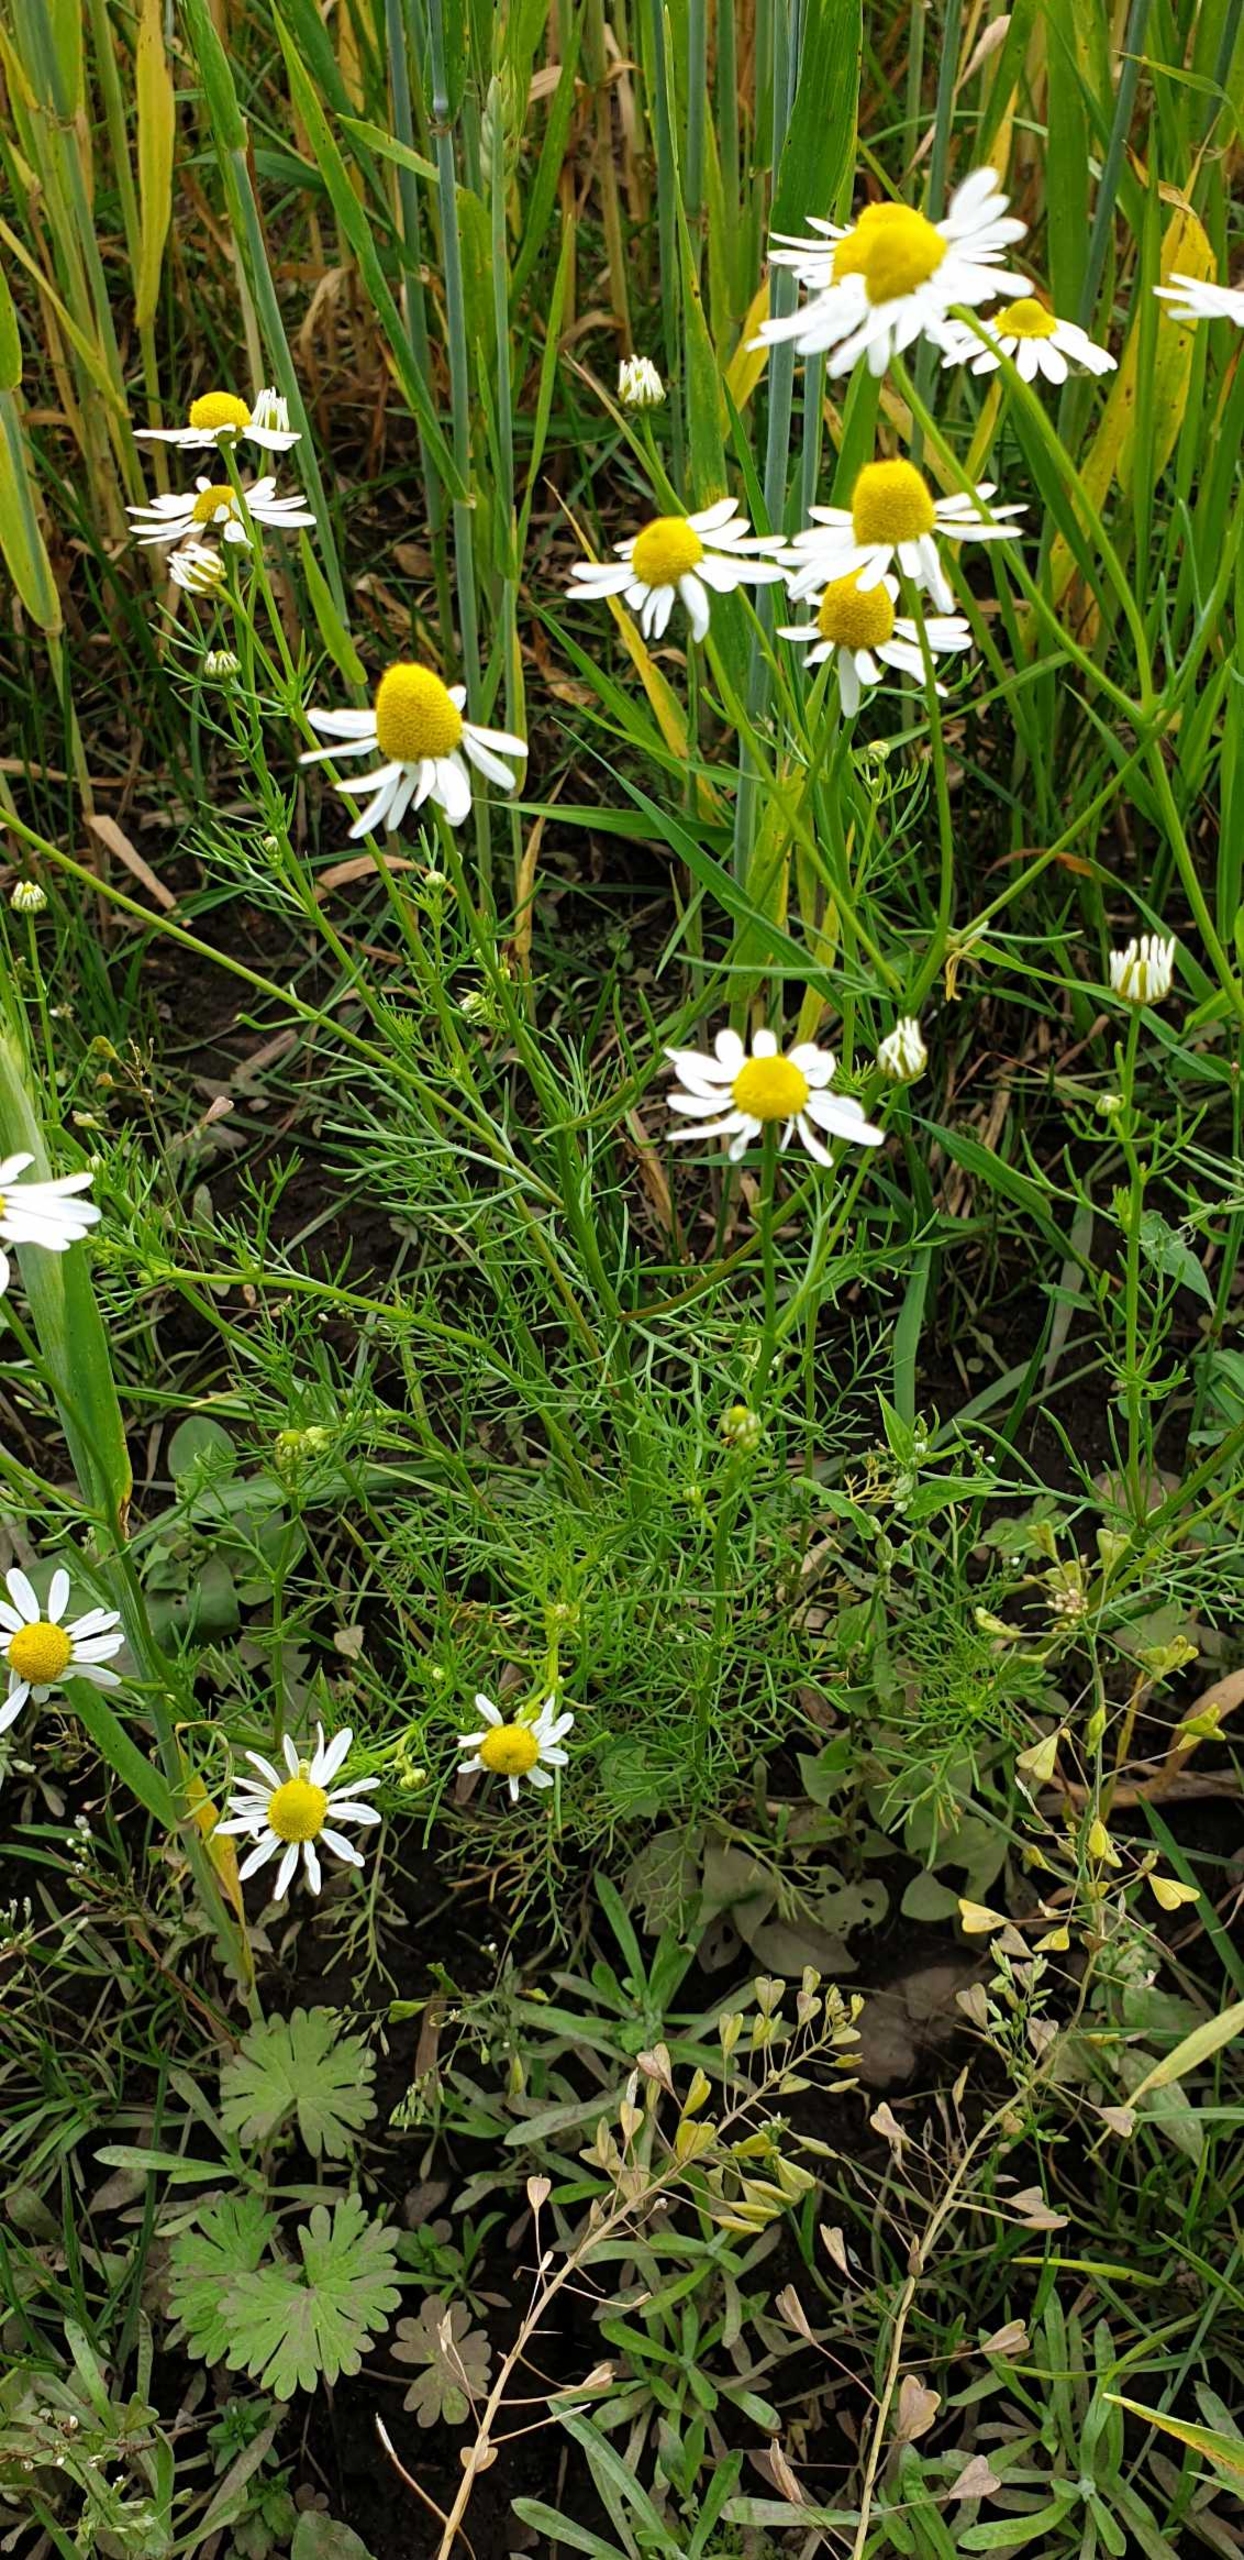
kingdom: Plantae
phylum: Tracheophyta
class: Magnoliopsida
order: Asterales
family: Asteraceae
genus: Tripleurospermum
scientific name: Tripleurospermum inodorum
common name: Lugtløs kamille
